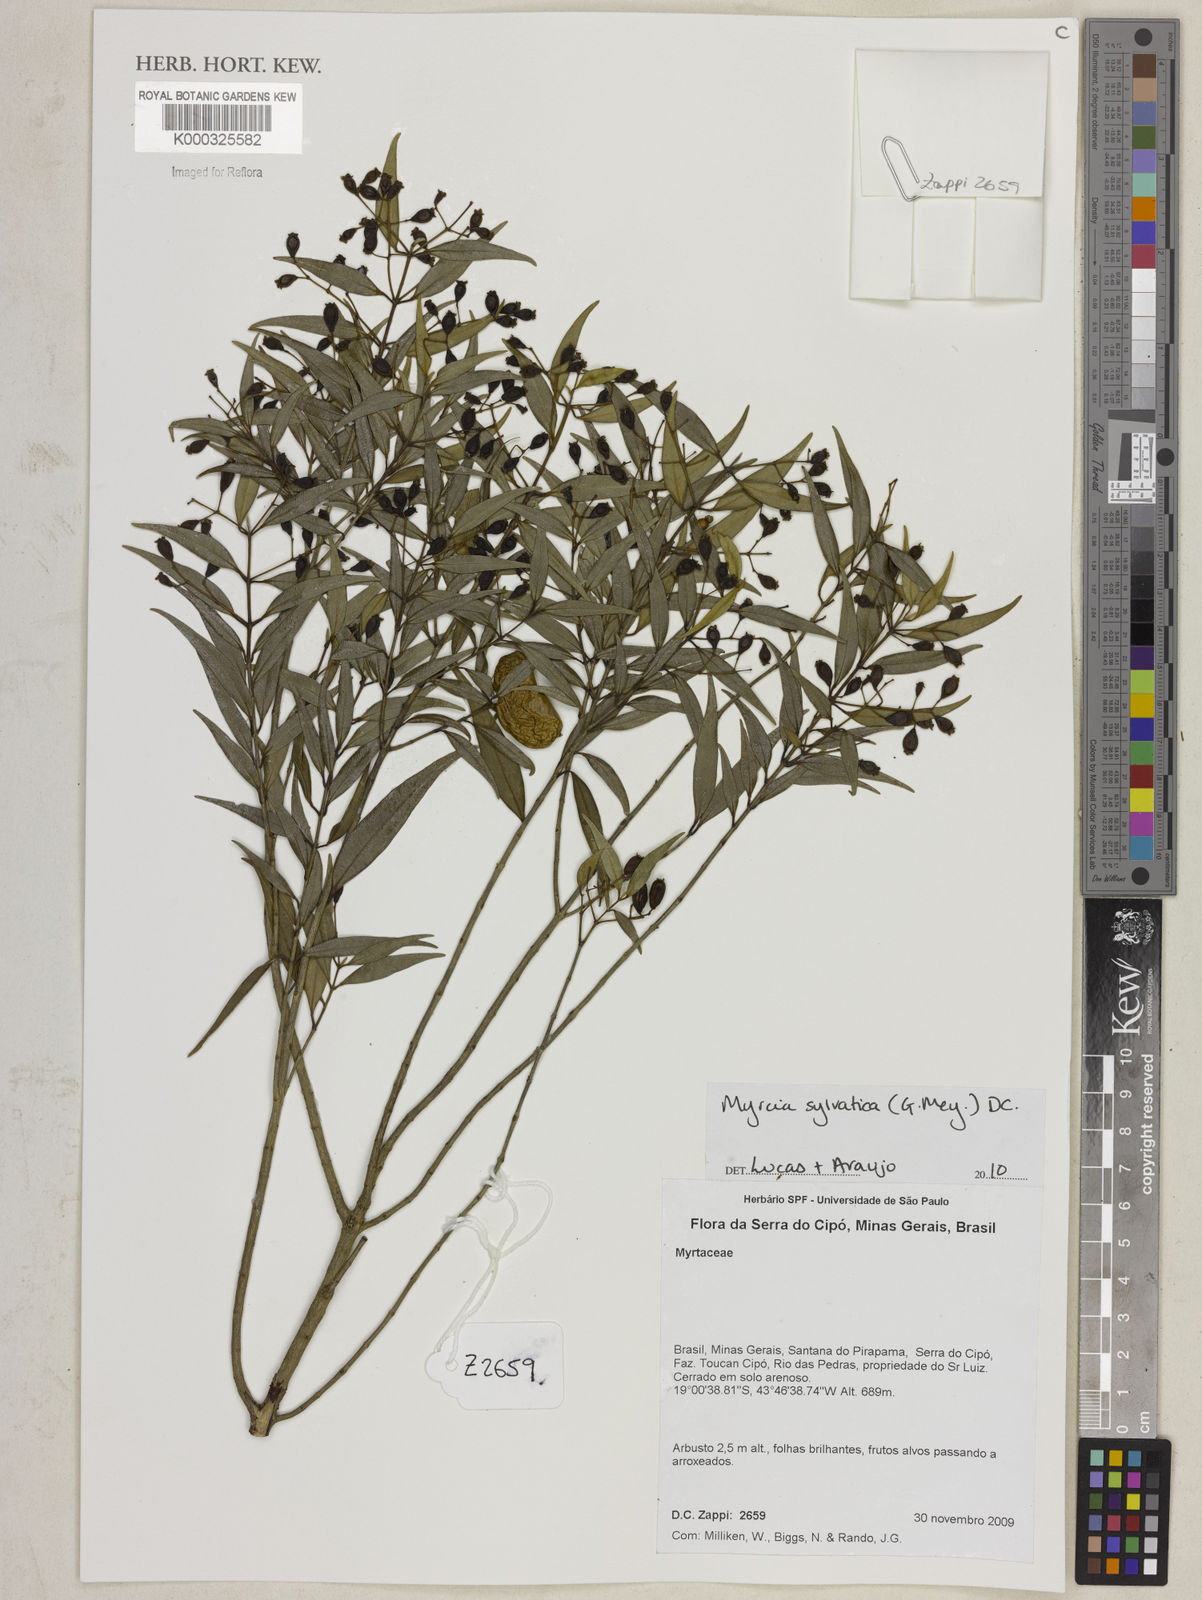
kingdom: Plantae
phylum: Tracheophyta
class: Magnoliopsida
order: Myrtales
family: Myrtaceae
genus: Myrcia
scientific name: Myrcia sylvatica
